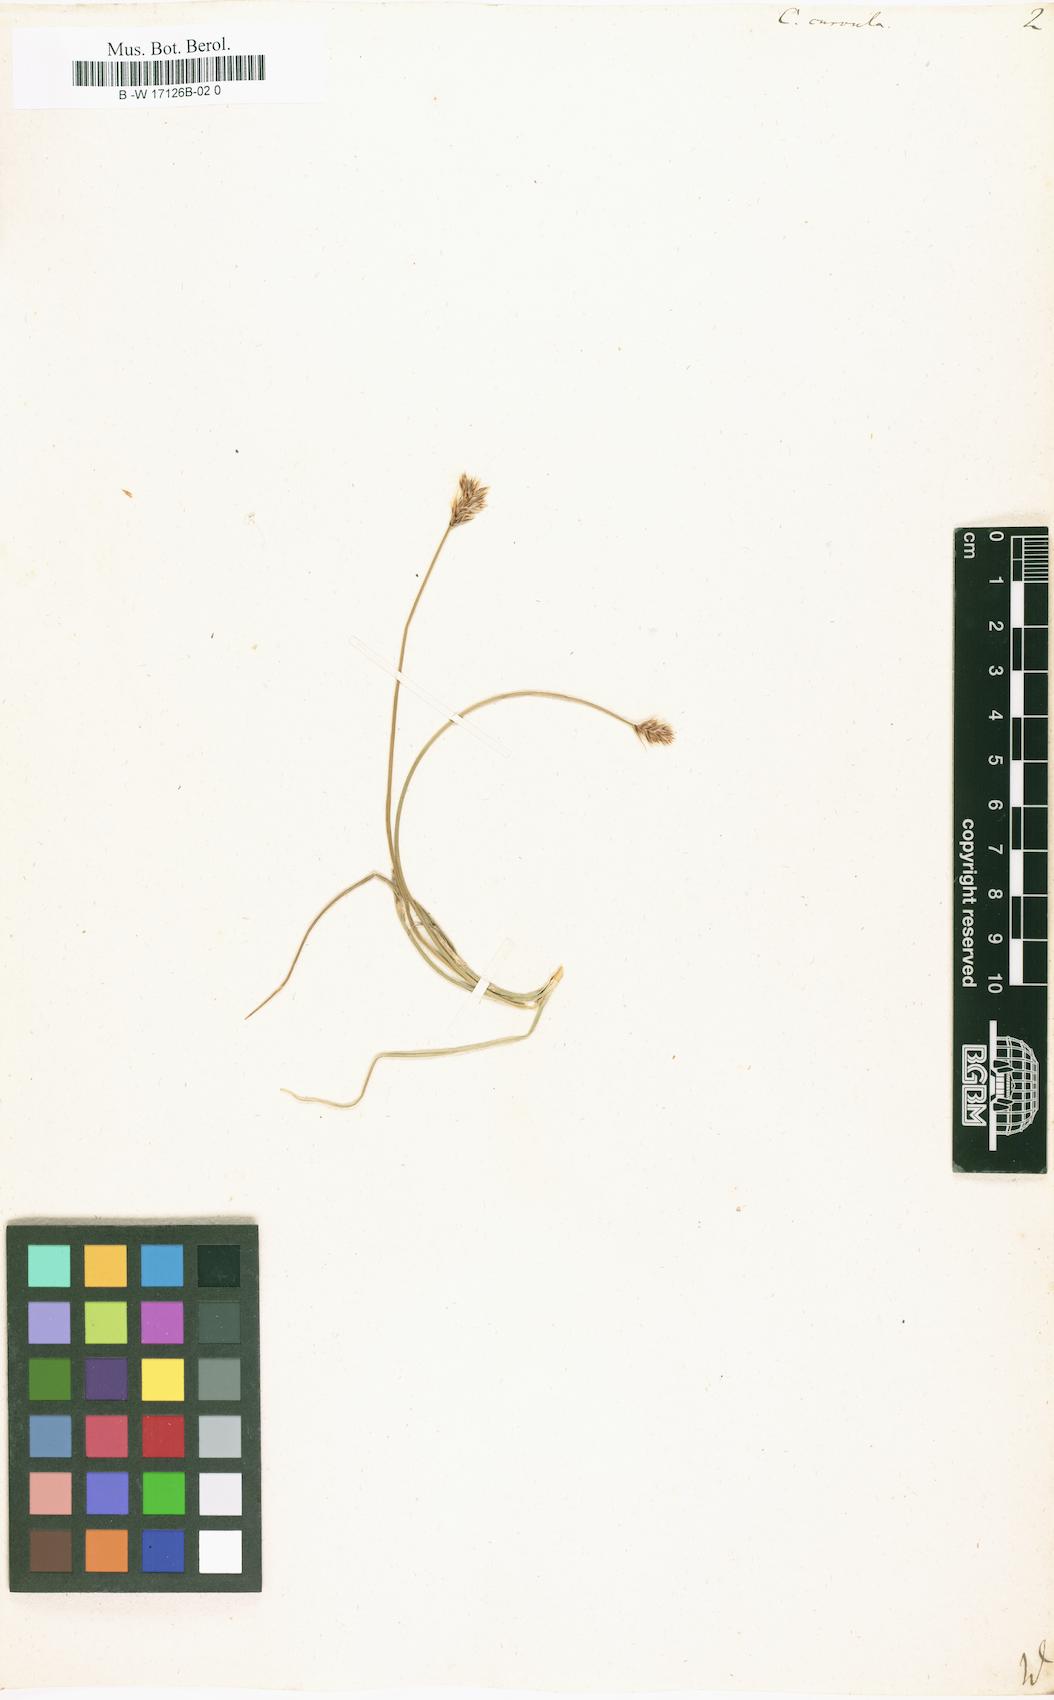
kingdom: Plantae
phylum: Tracheophyta
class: Liliopsida
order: Poales
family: Cyperaceae
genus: Carex
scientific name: Carex curvula
